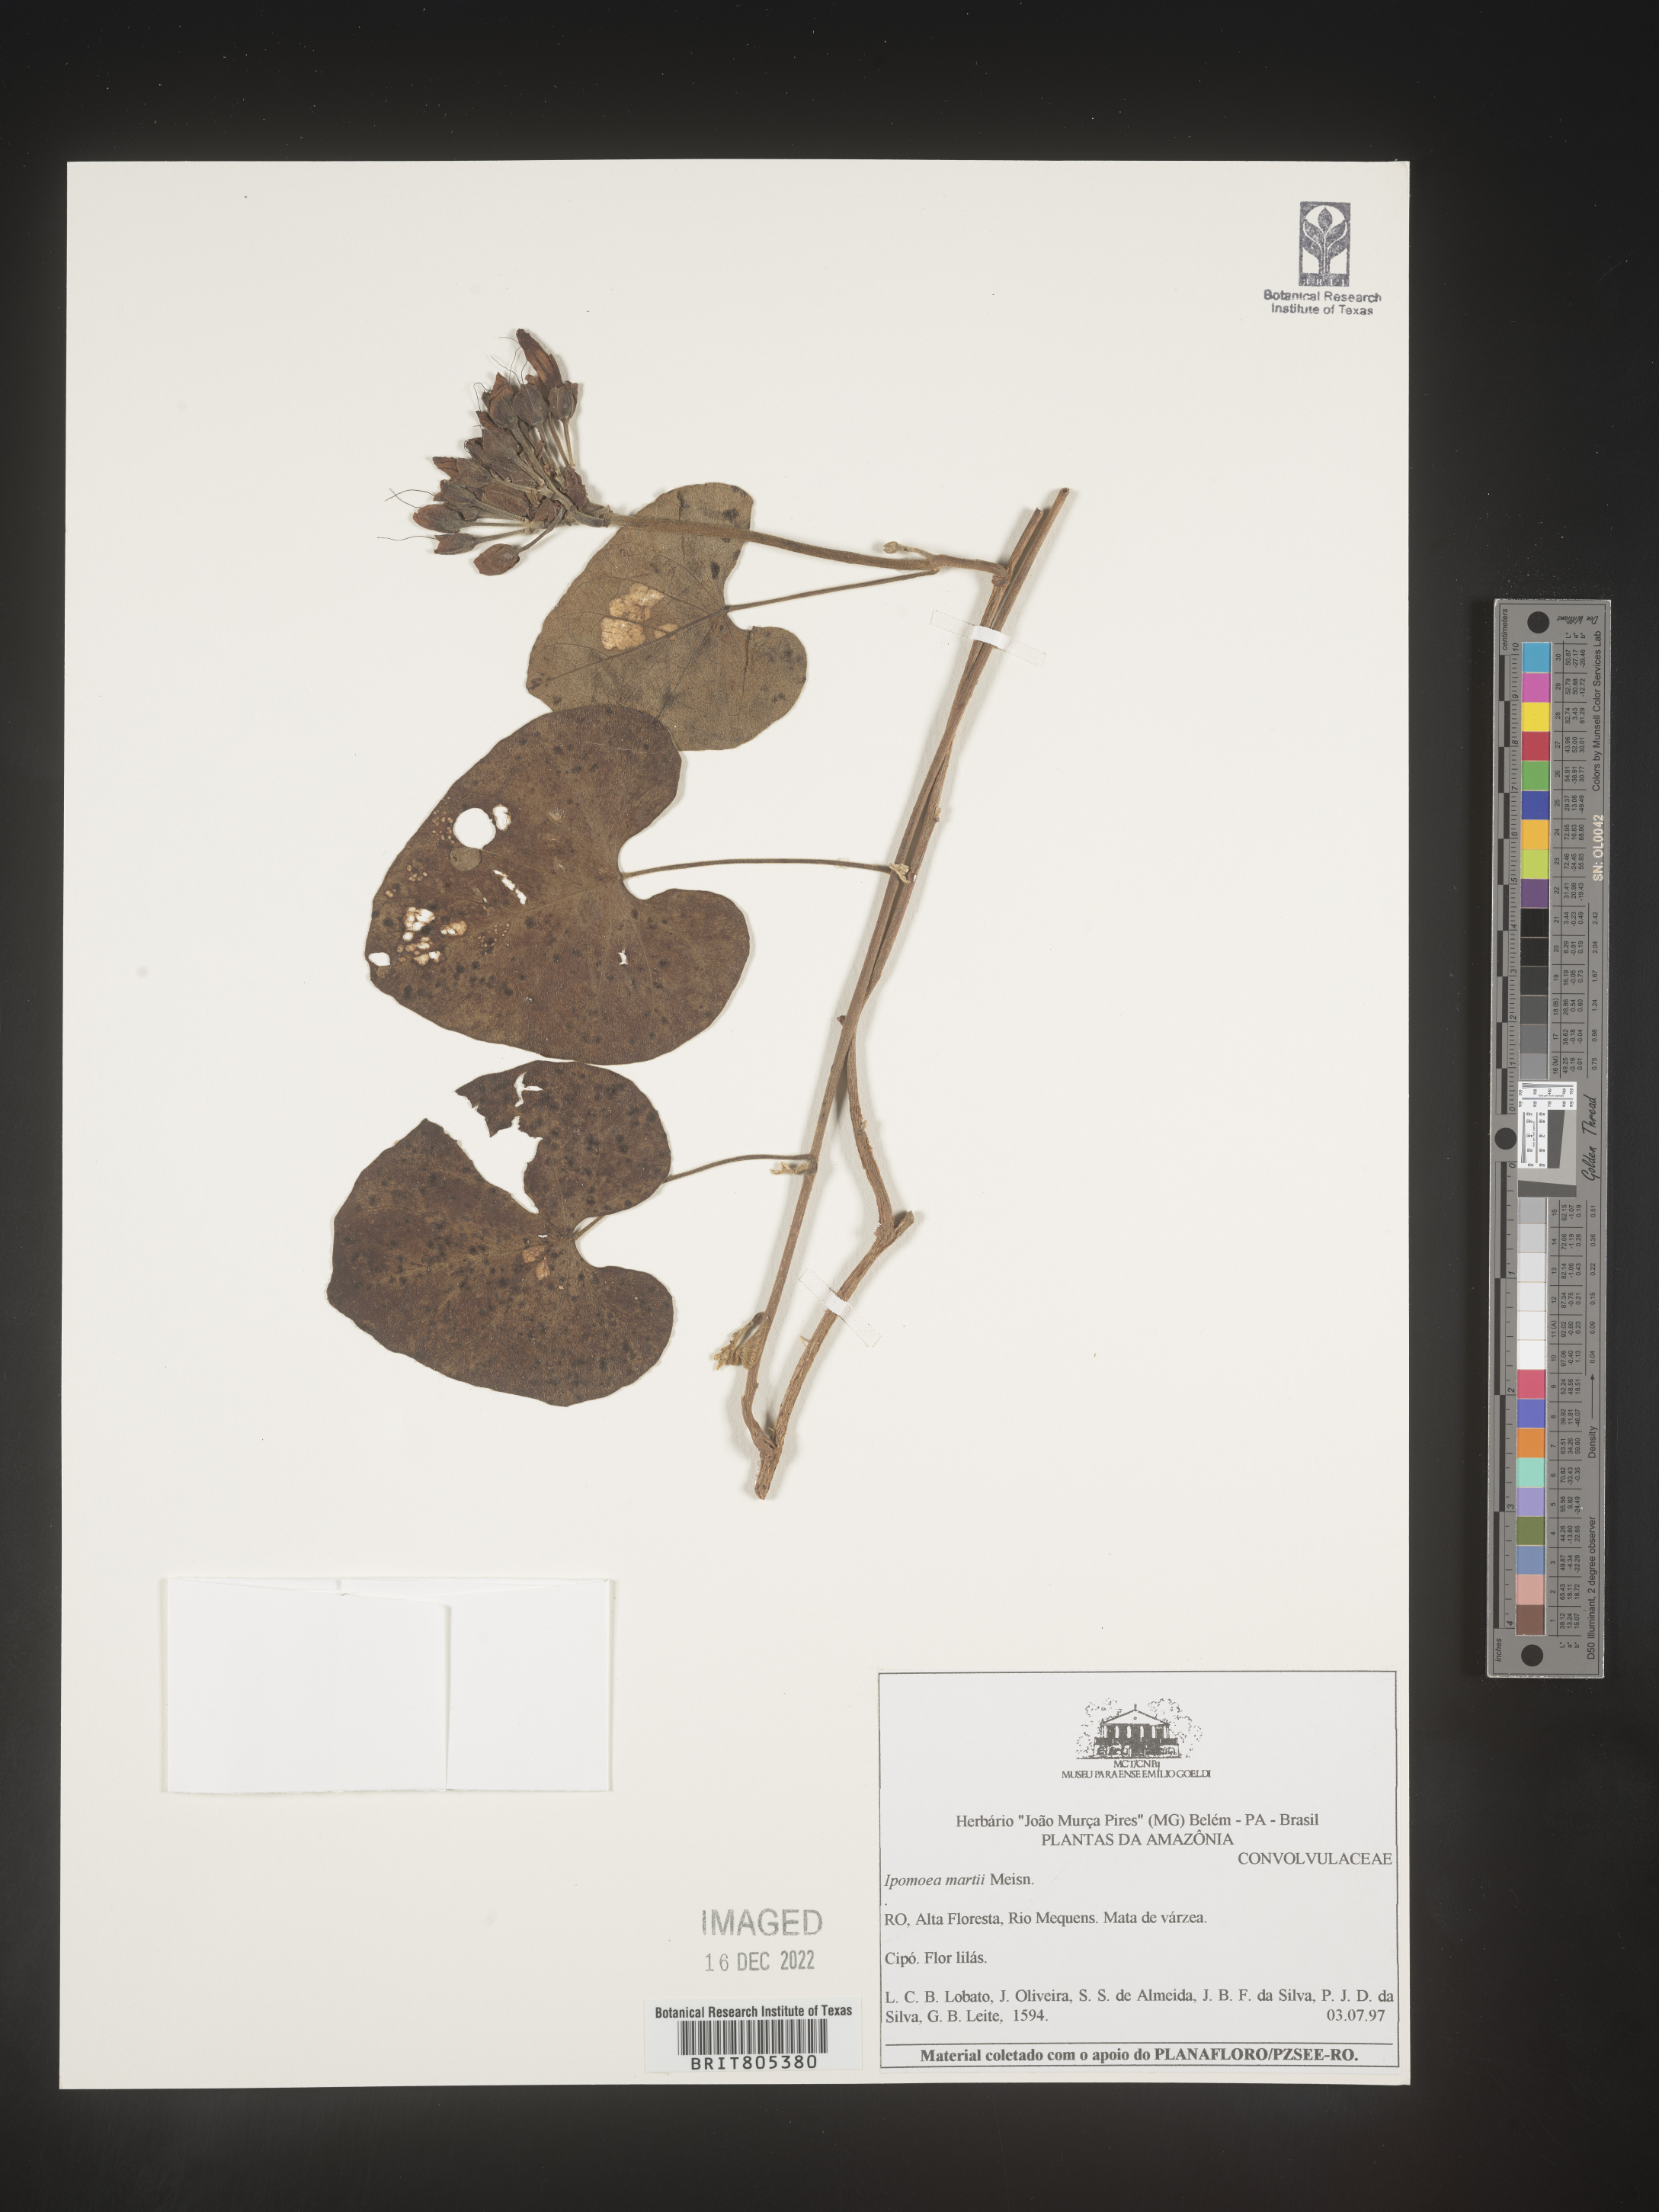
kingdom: Plantae
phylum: Tracheophyta
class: Magnoliopsida
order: Solanales
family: Convolvulaceae
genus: Ipomoea
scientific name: Ipomoea
